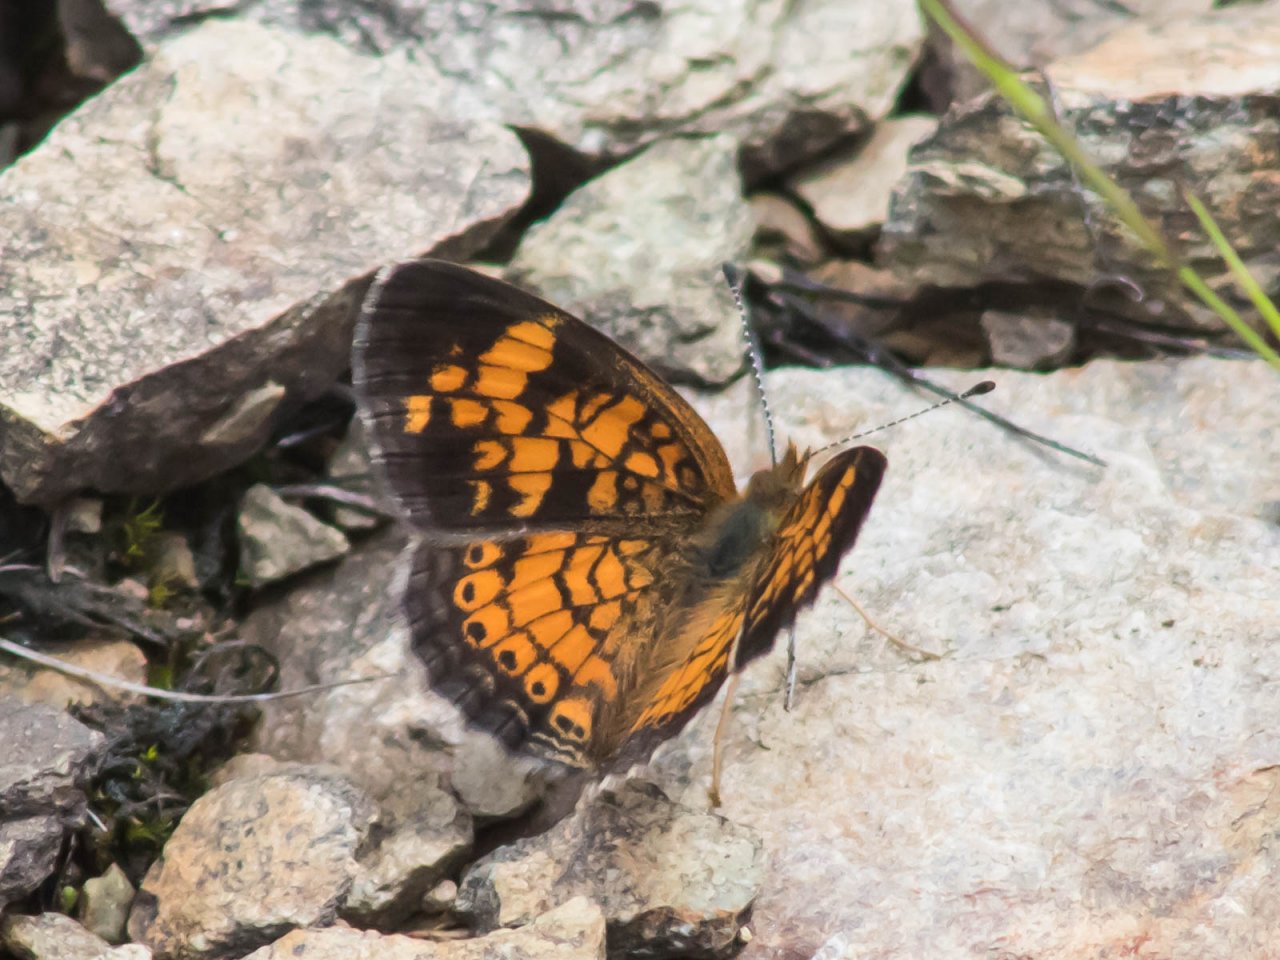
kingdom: Animalia
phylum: Arthropoda
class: Insecta
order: Lepidoptera
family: Nymphalidae
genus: Phyciodes
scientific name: Phyciodes tharos
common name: Pearl Crescent
